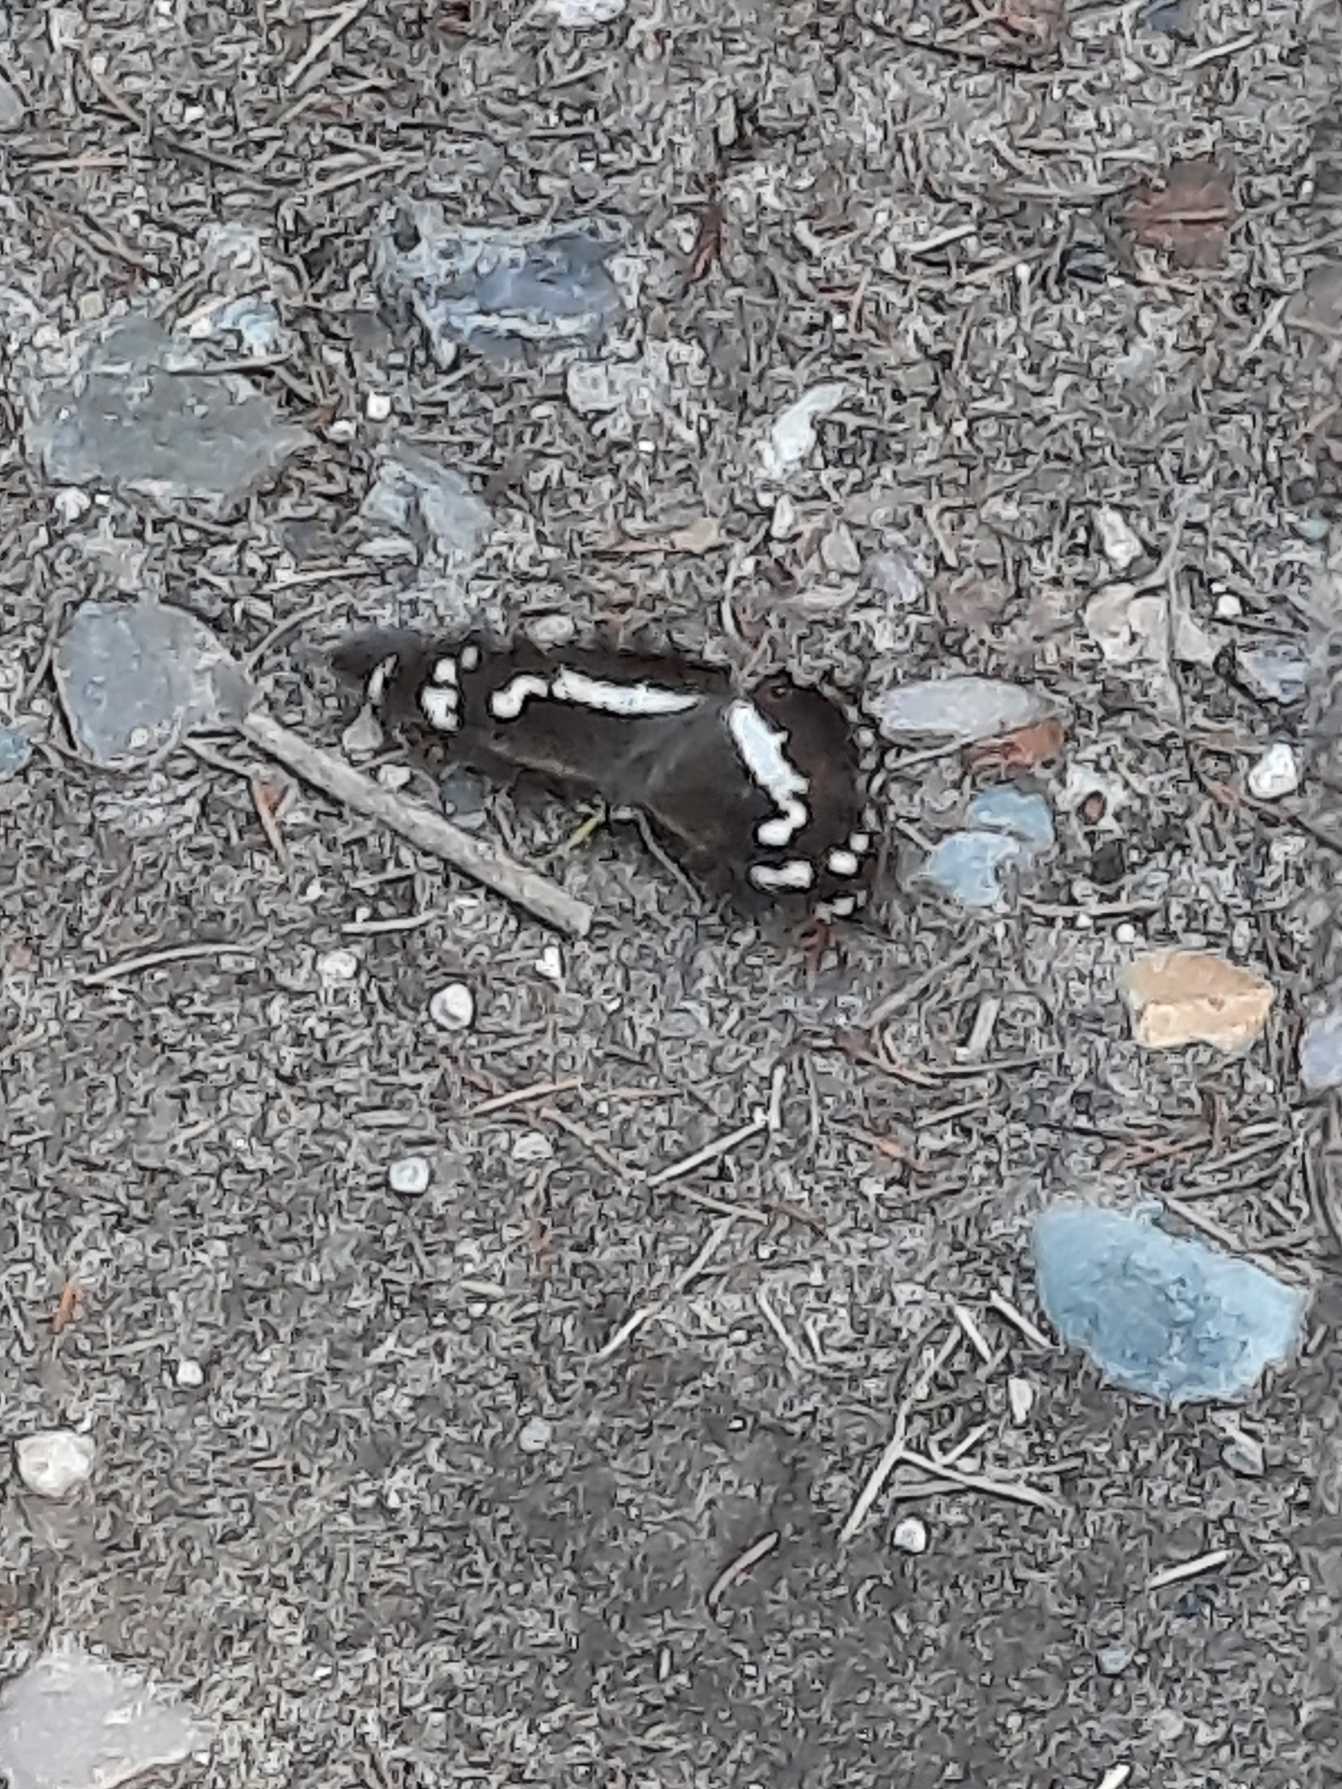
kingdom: Animalia
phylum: Arthropoda
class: Insecta
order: Lepidoptera
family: Nymphalidae
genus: Apatura
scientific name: Apatura iris
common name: Iris
